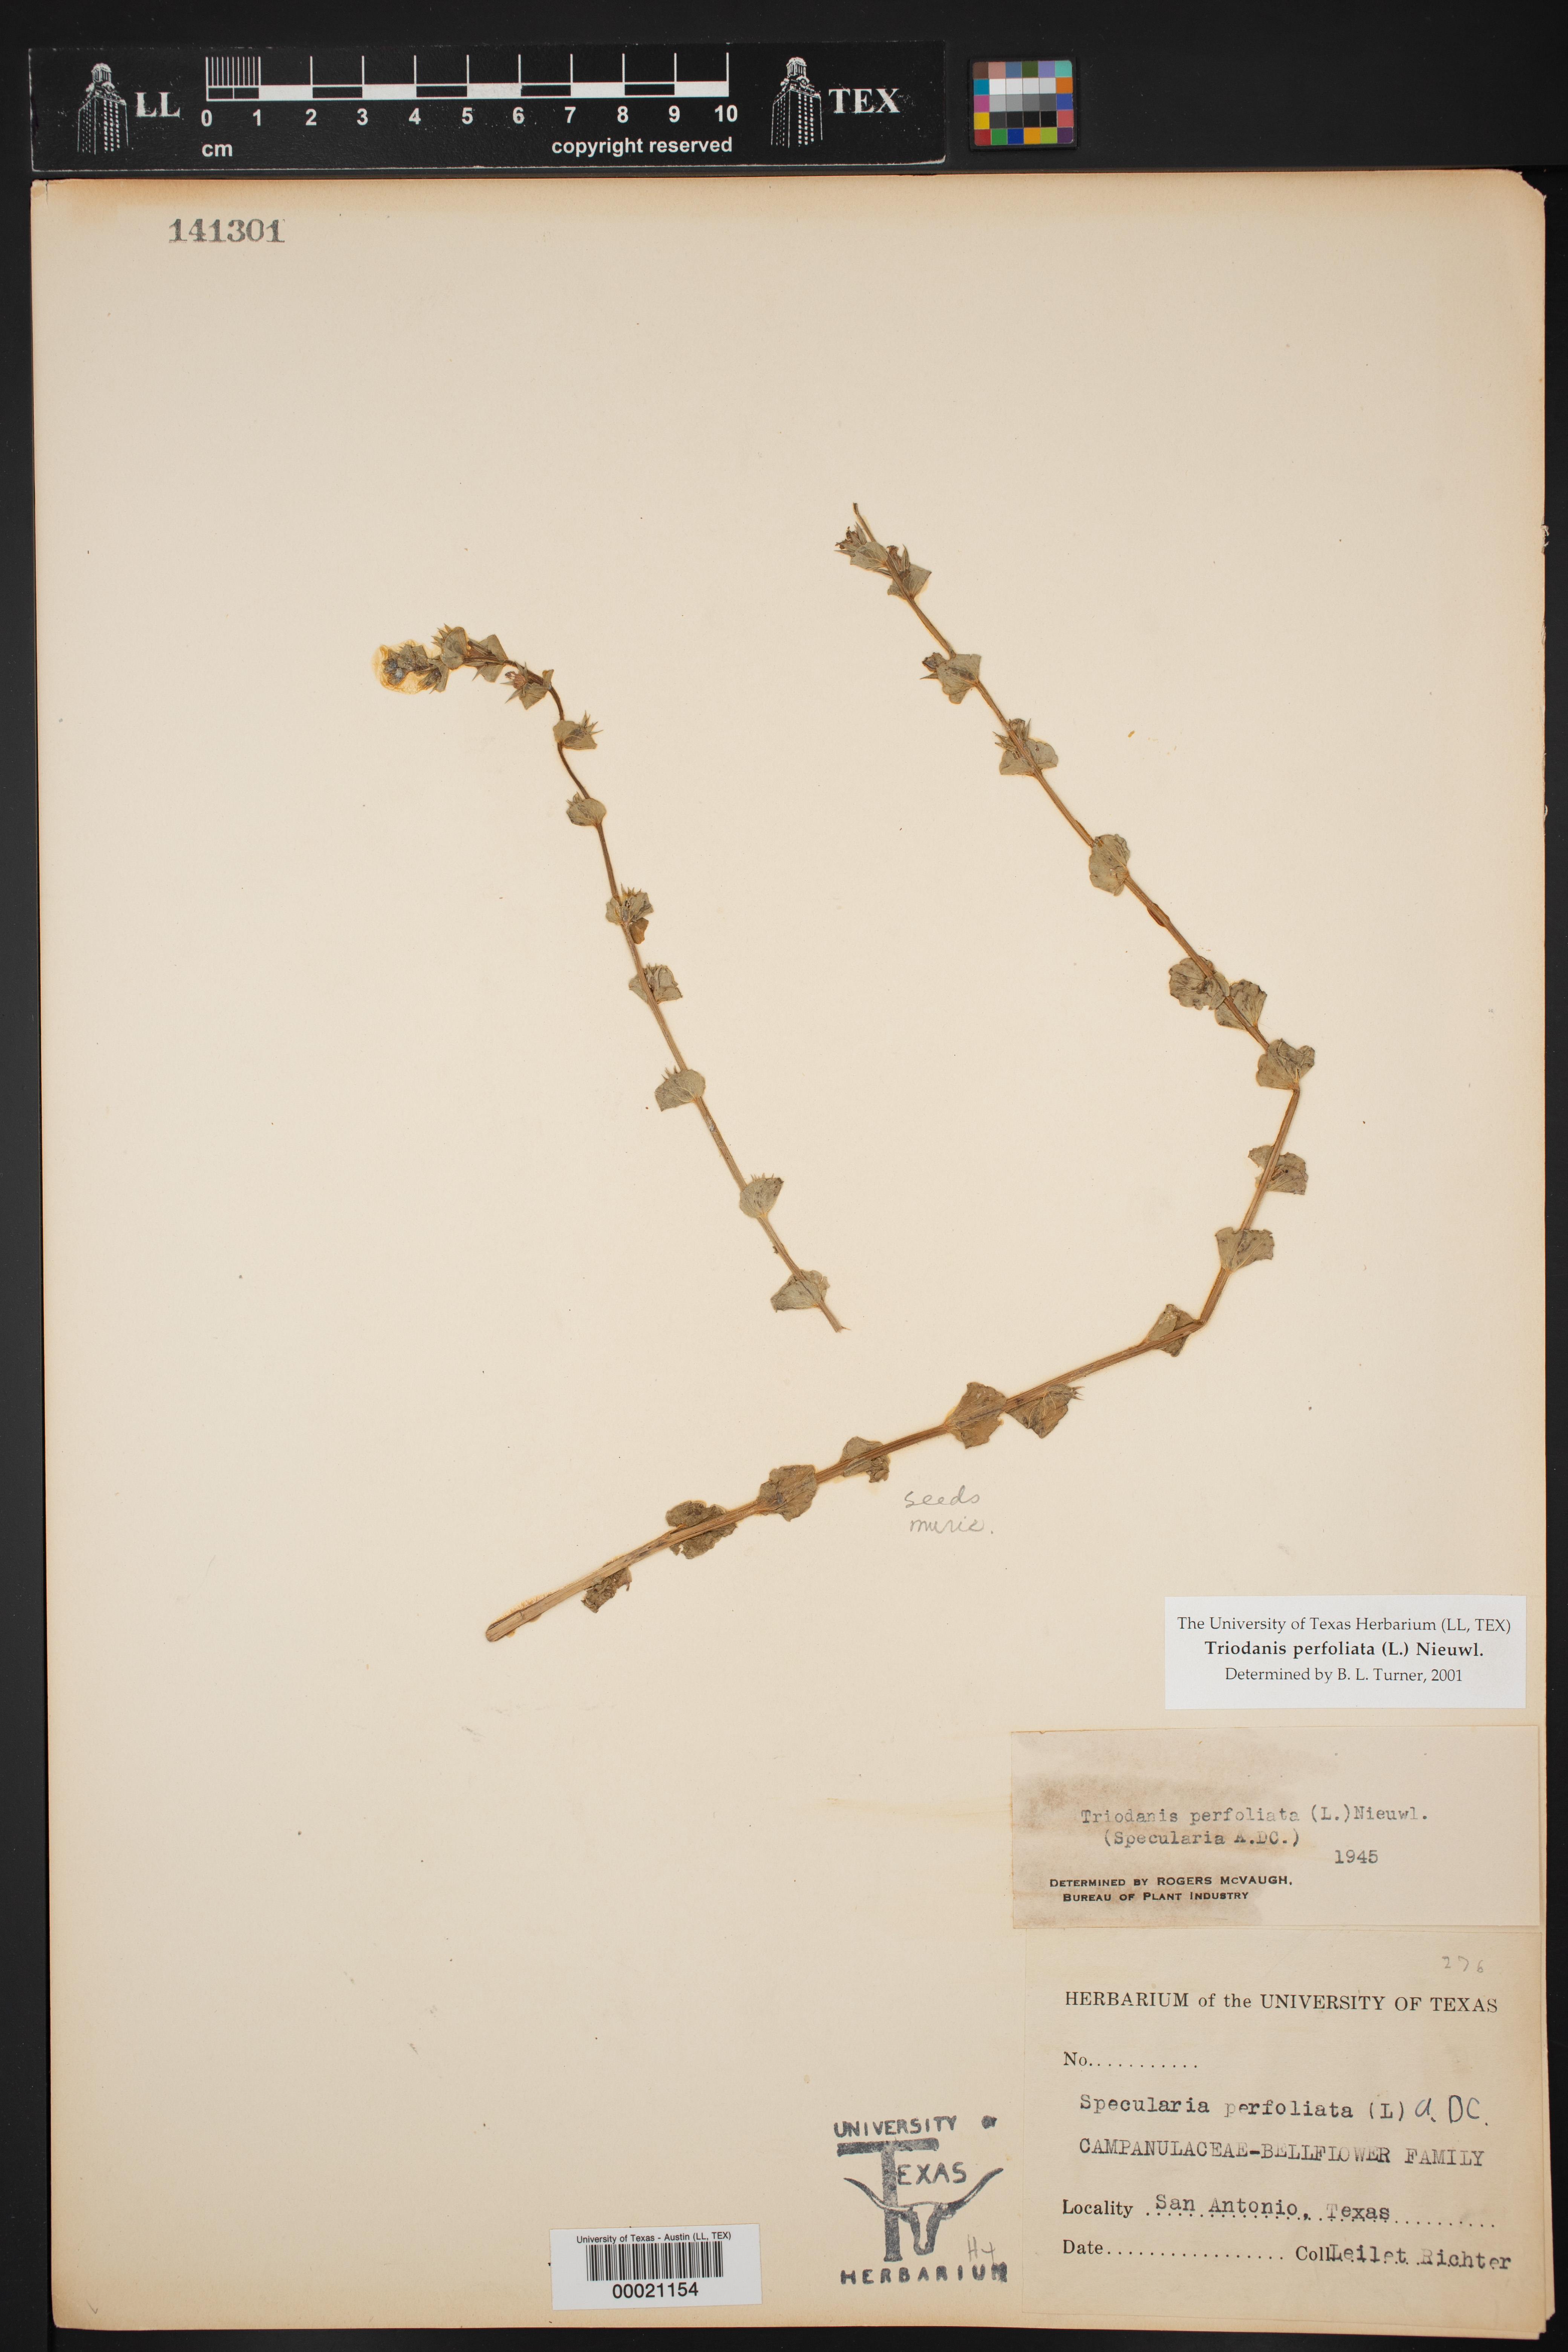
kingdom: Plantae
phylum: Tracheophyta
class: Magnoliopsida
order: Asterales
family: Campanulaceae
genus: Triodanis
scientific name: Triodanis perfoliata
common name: Clasping venus' looking-glass
